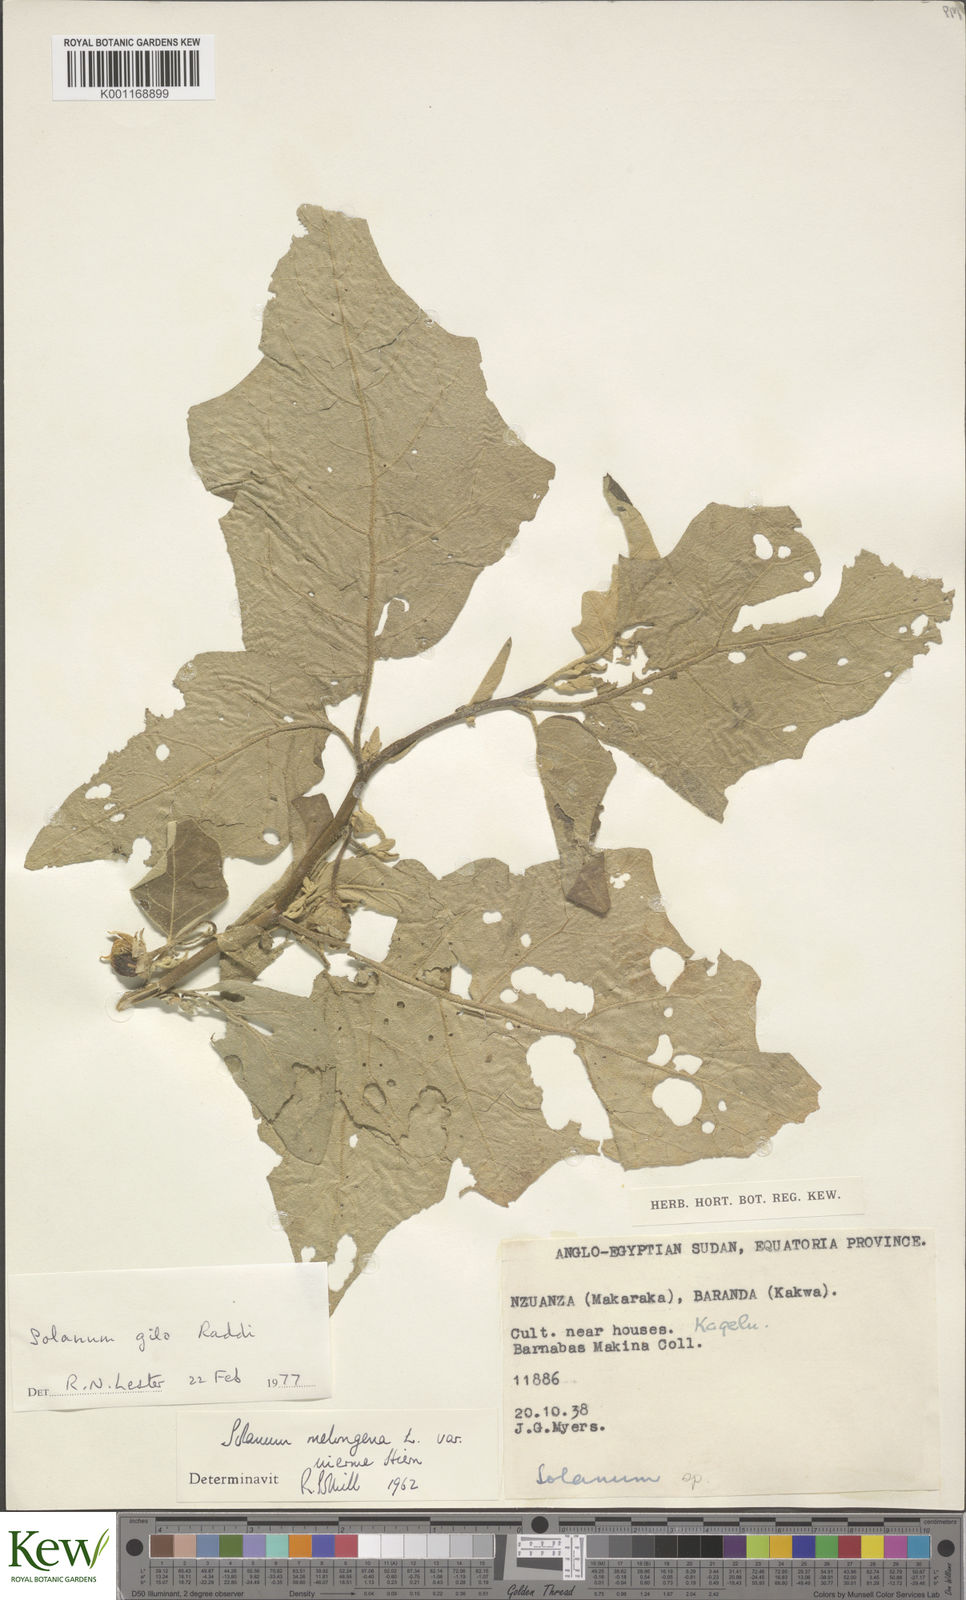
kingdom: Plantae
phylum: Tracheophyta
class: Magnoliopsida
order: Solanales
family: Solanaceae
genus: Solanum
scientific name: Solanum aethiopicum
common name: Gilo
